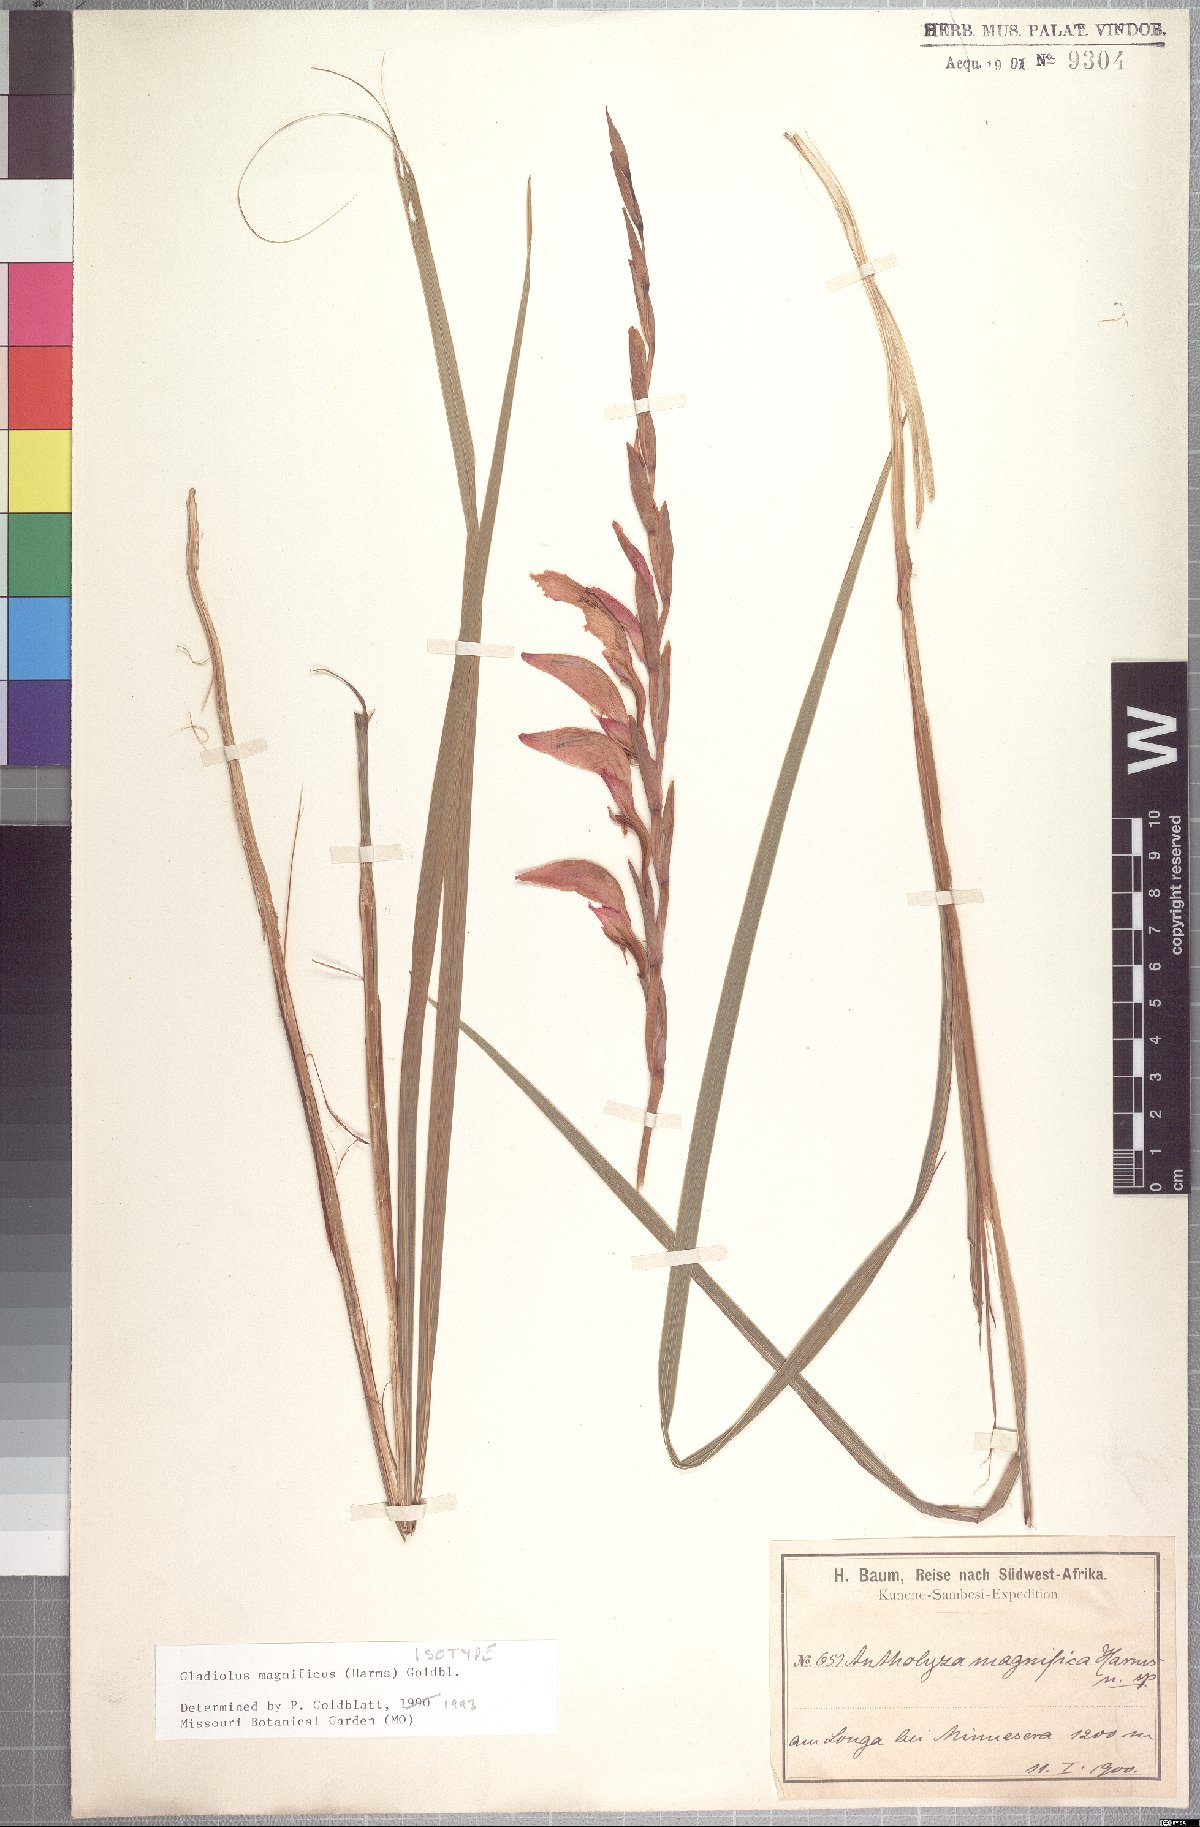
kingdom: Plantae
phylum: Tracheophyta
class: Liliopsida
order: Asparagales
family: Iridaceae
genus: Gladiolus
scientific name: Gladiolus magnificus
